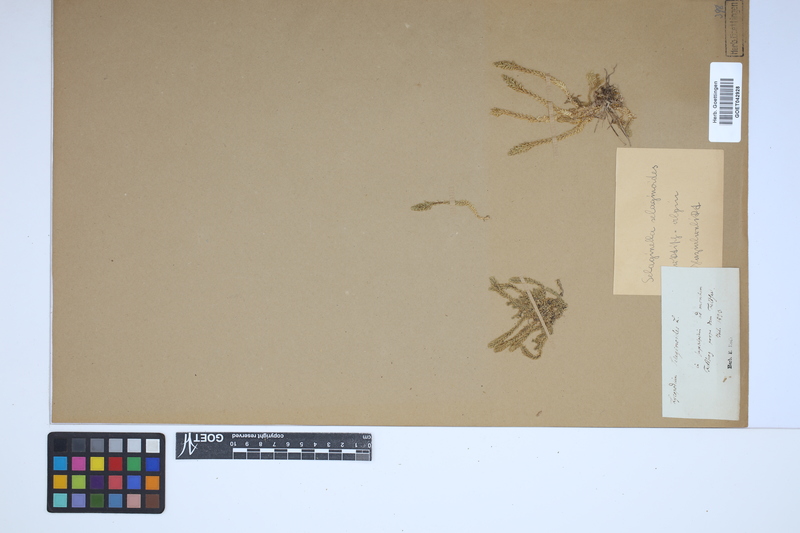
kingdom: Plantae
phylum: Tracheophyta
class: Lycopodiopsida
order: Selaginellales
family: Selaginellaceae
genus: Selaginella
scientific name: Selaginella selaginoides
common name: Prickly mountain-moss
